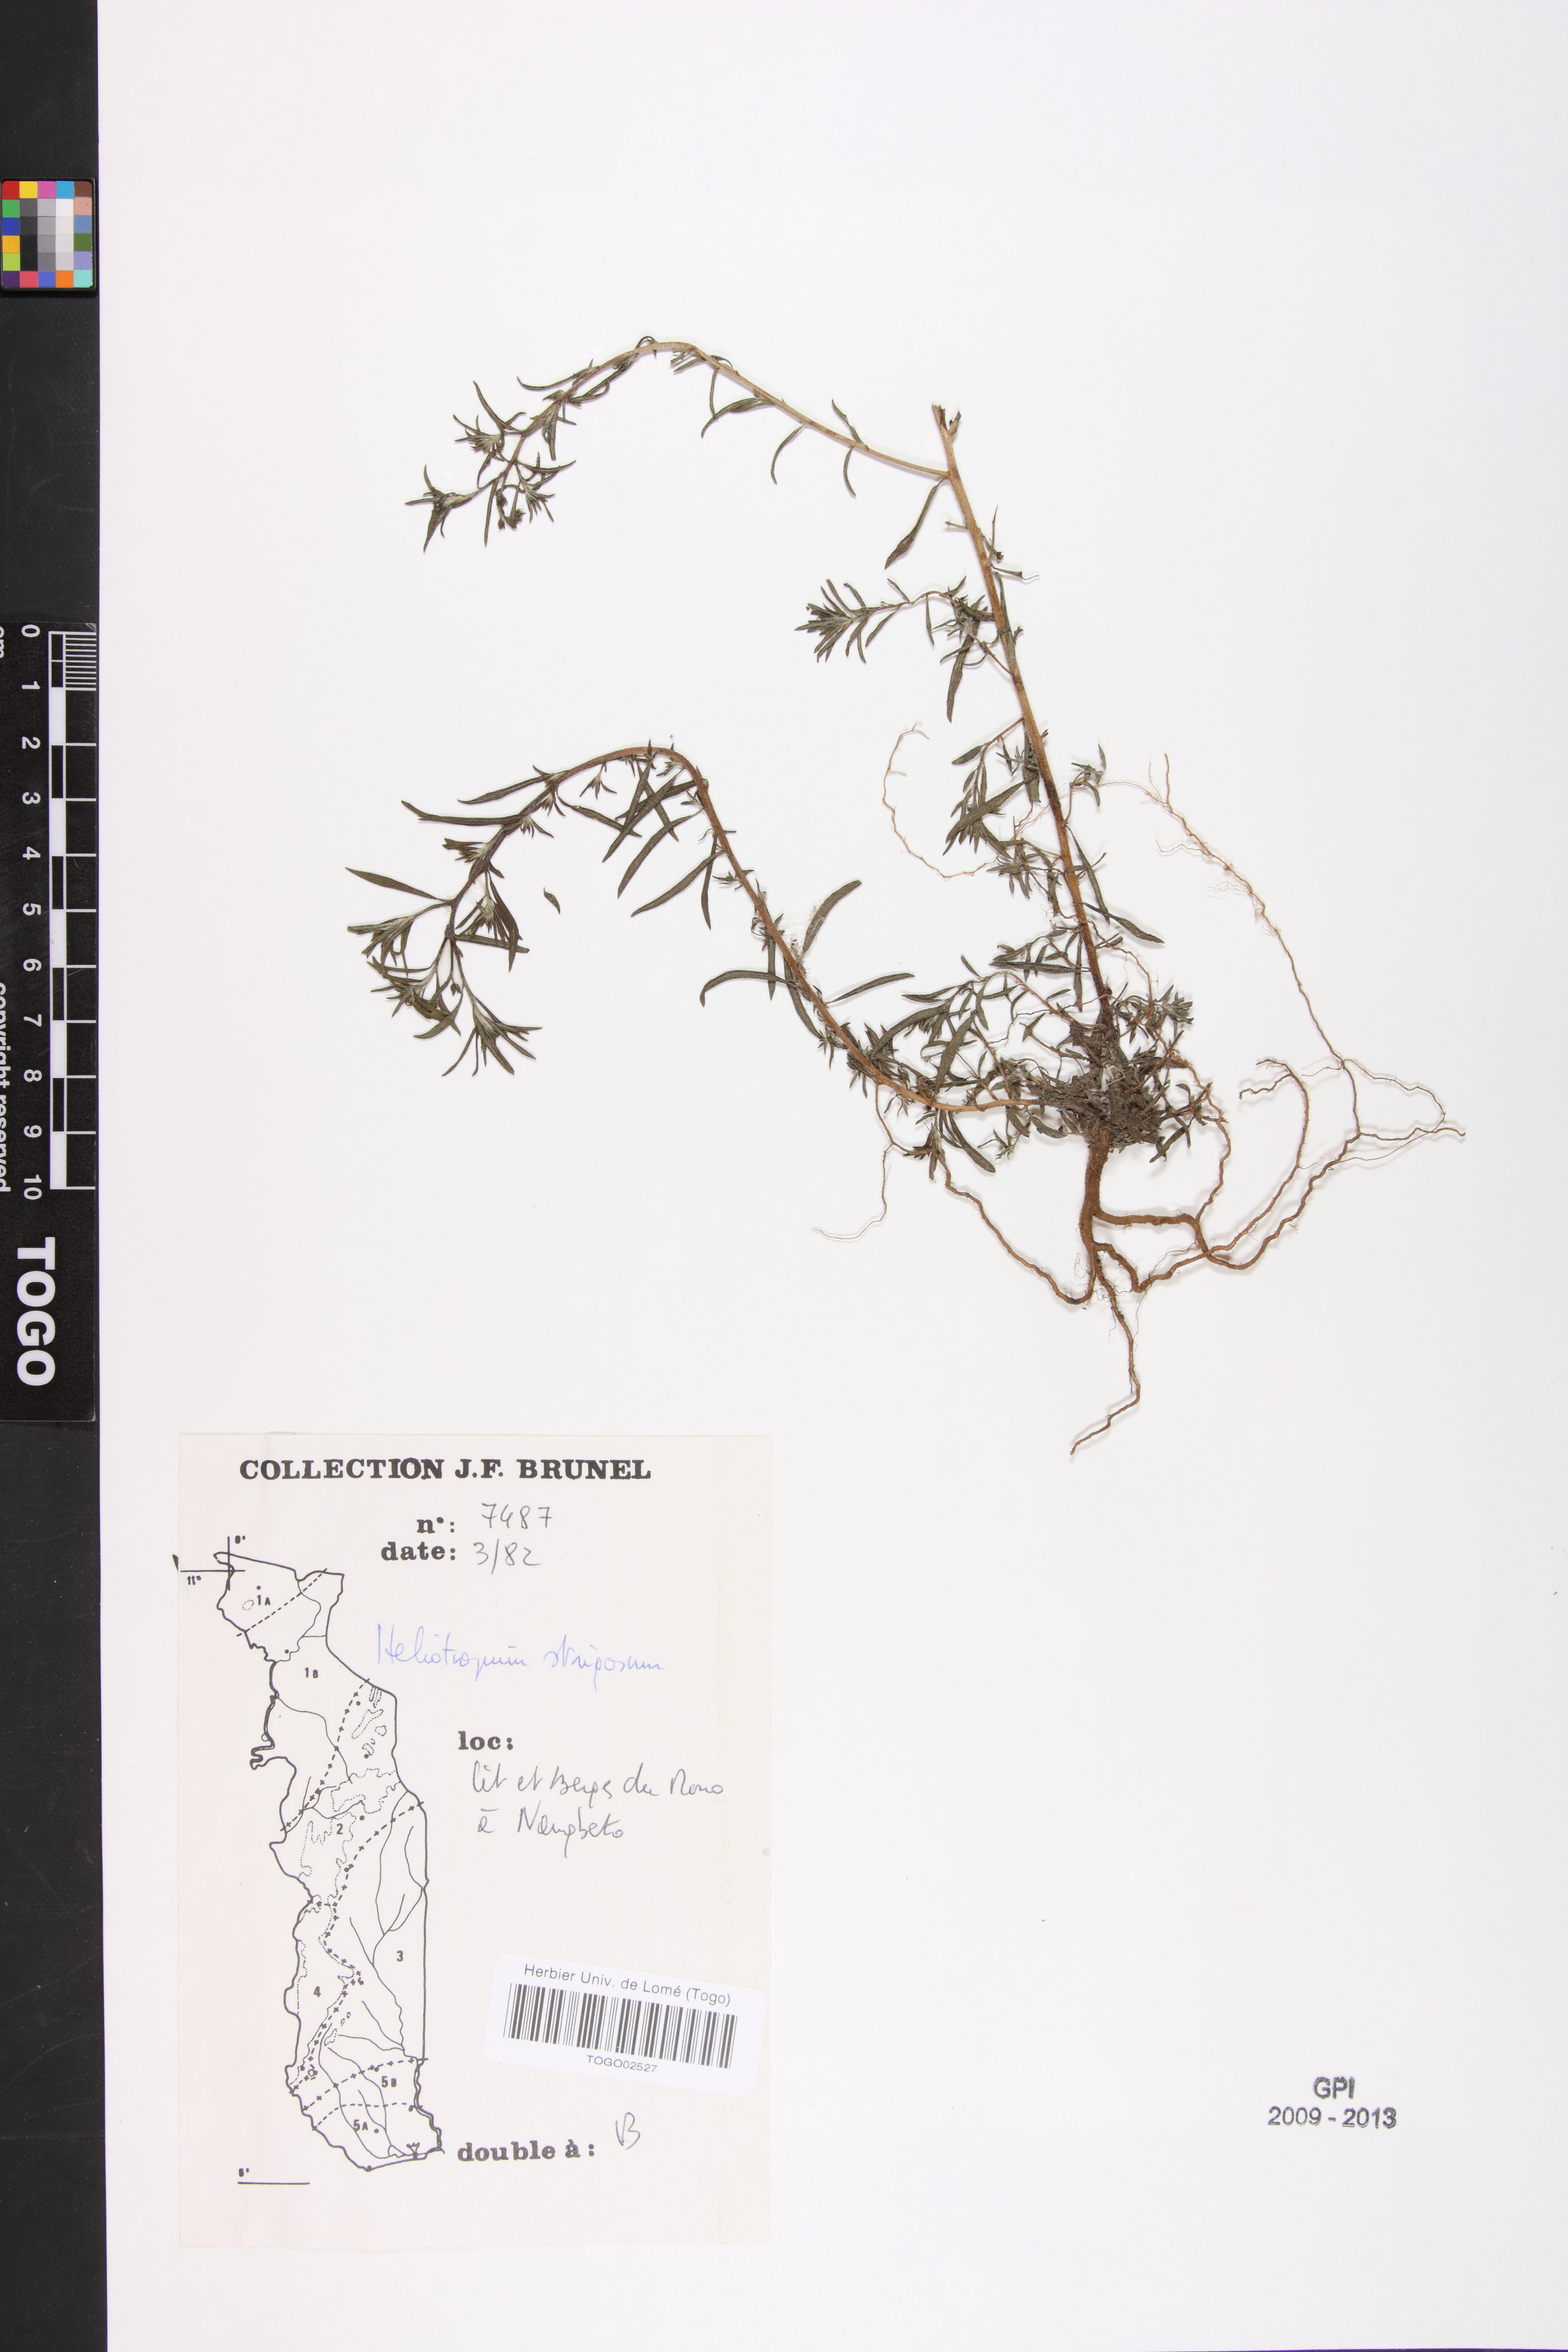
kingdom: Plantae
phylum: Tracheophyta
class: Magnoliopsida
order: Boraginales
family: Heliotropiaceae
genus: Euploca
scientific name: Euploca strigosa
